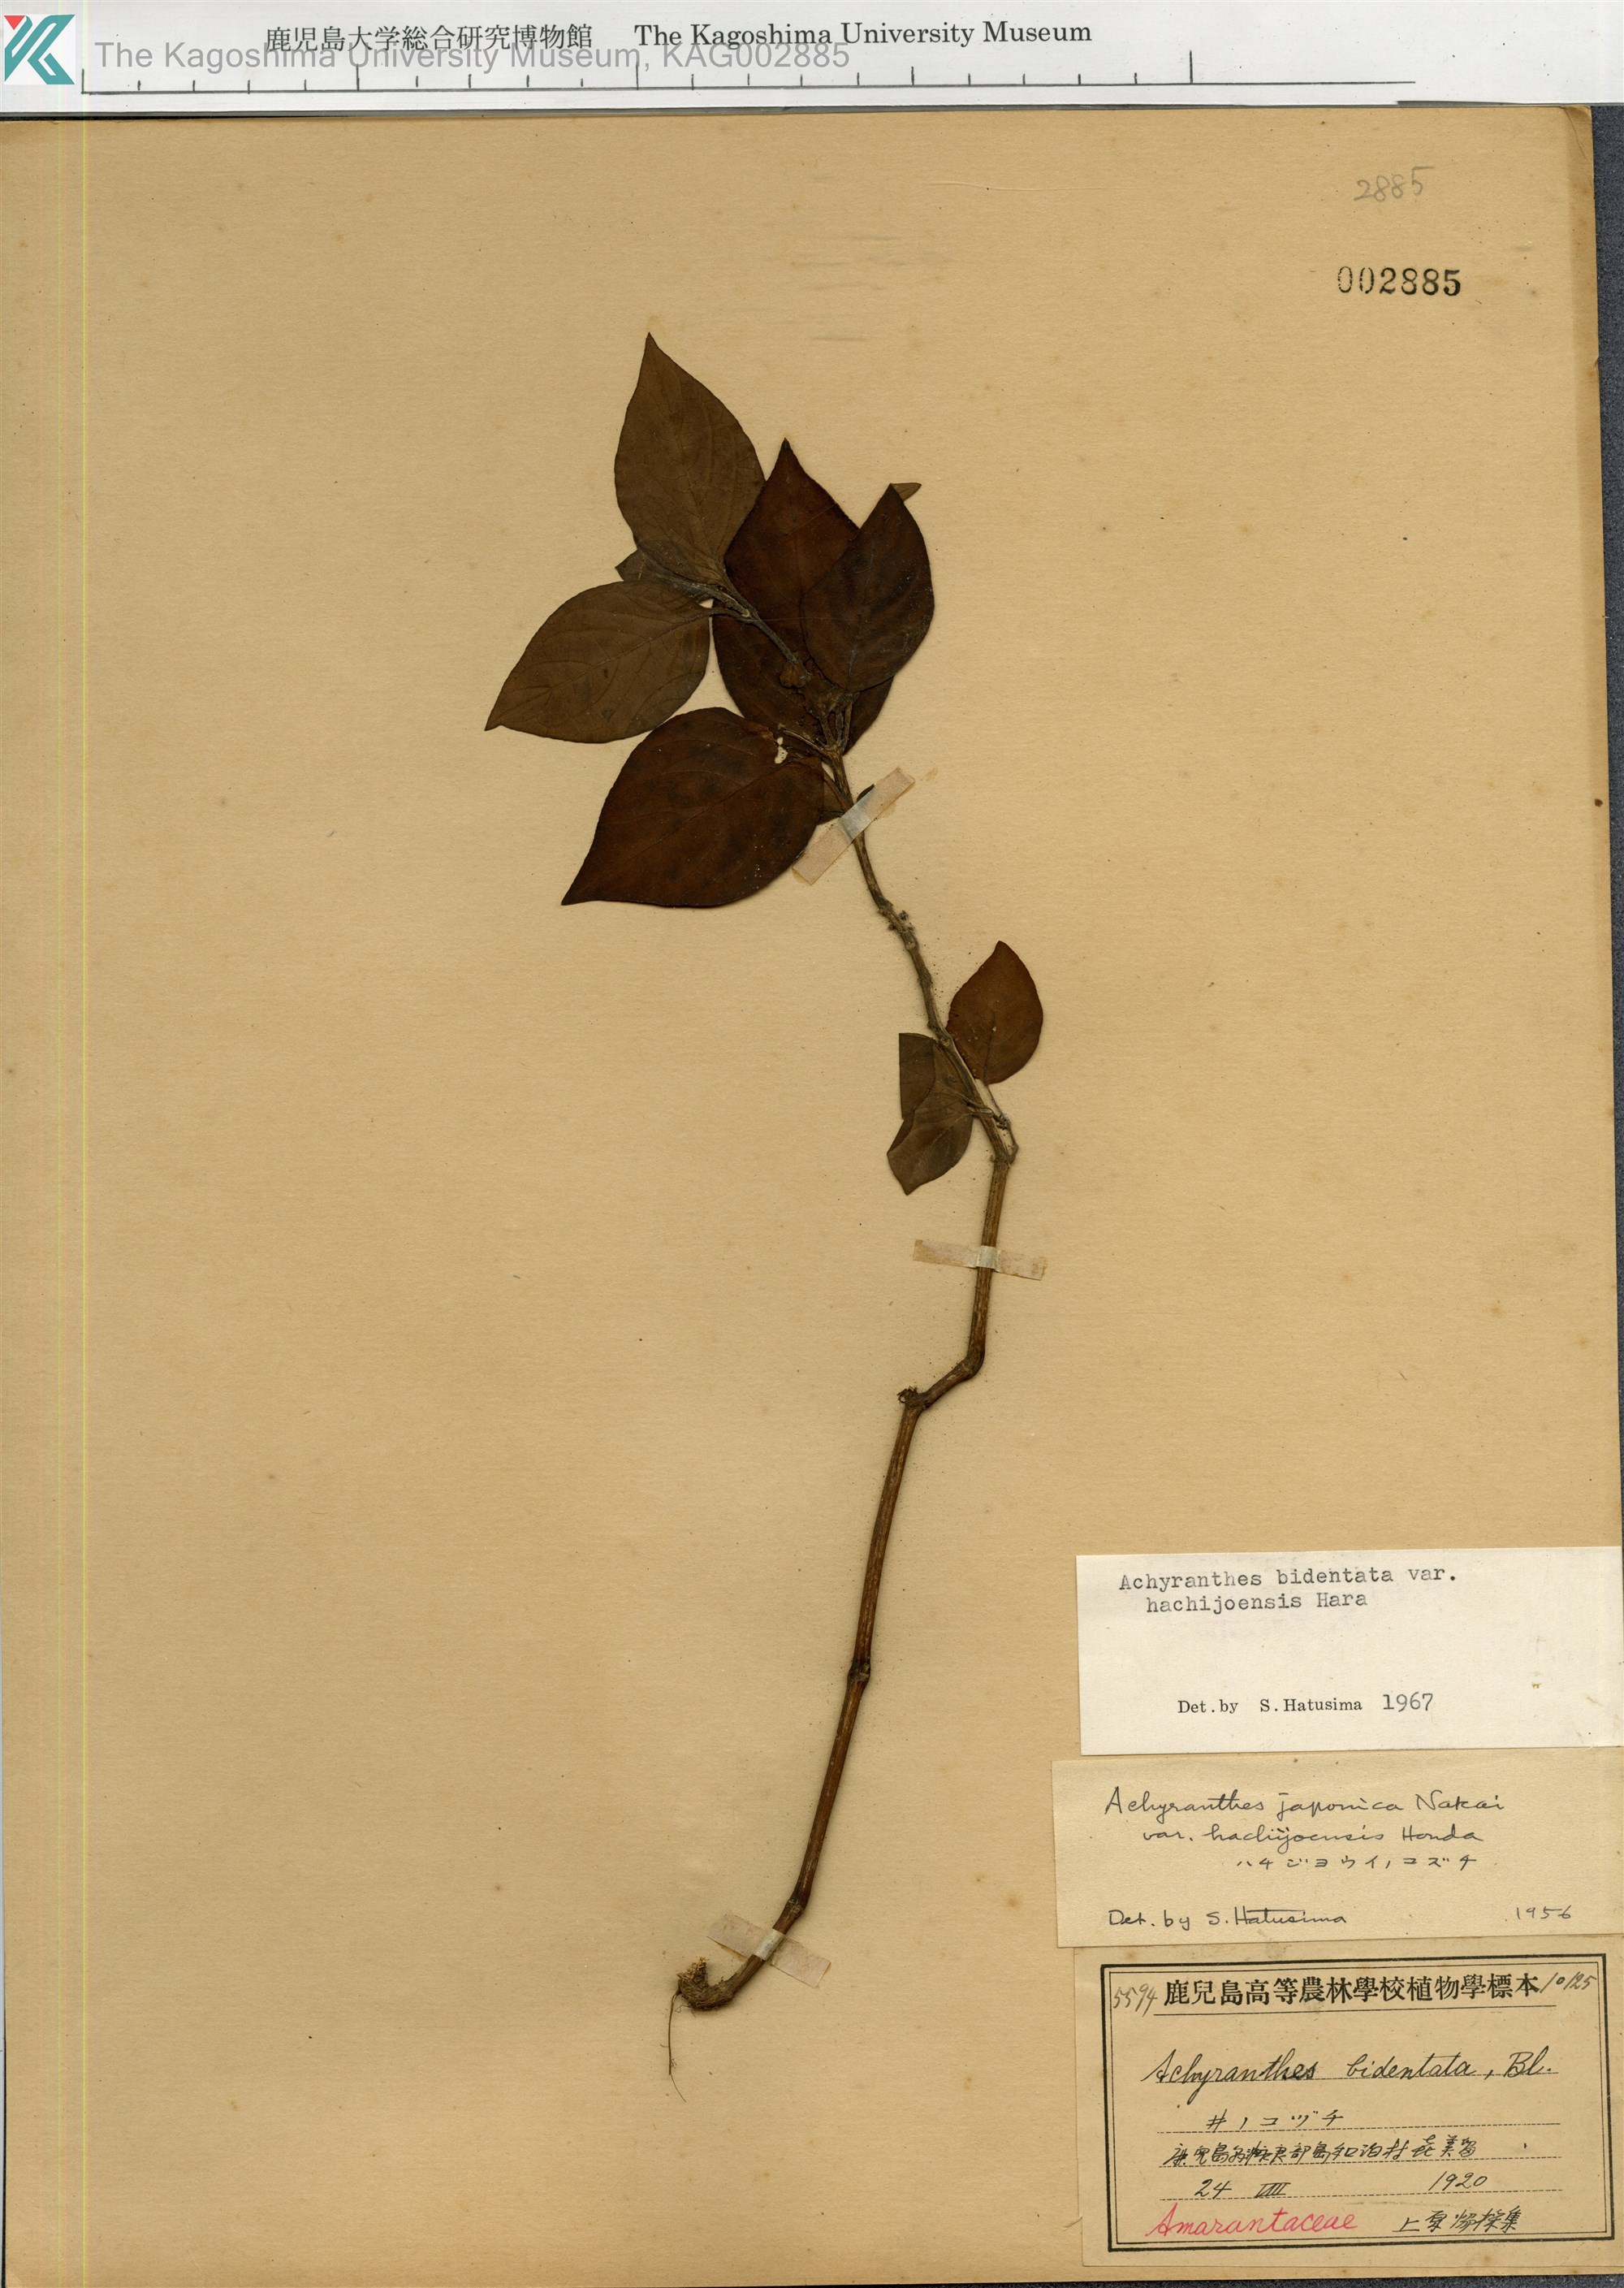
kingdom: Plantae
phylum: Tracheophyta
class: Magnoliopsida
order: Caryophyllales
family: Amaranthaceae
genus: Achyranthes
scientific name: Achyranthes bidentata
